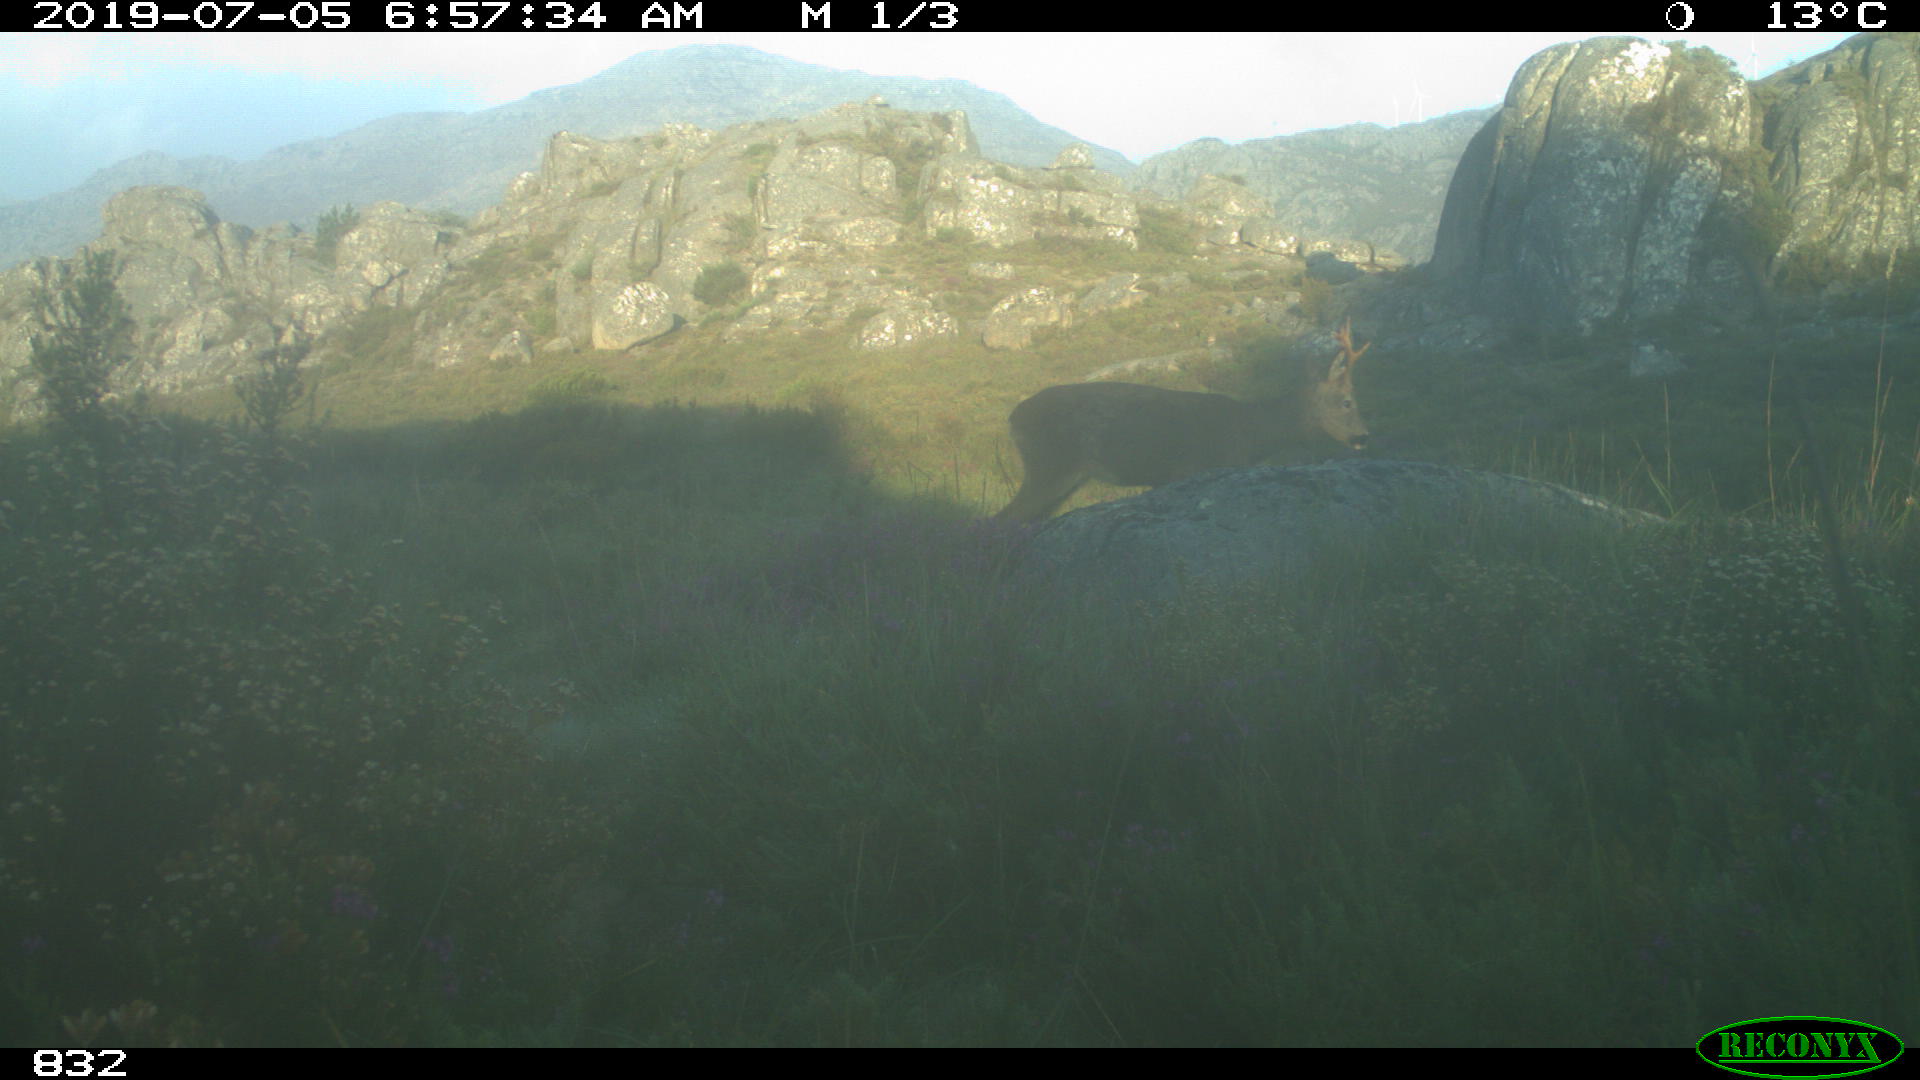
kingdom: Animalia
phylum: Chordata
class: Mammalia
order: Artiodactyla
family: Cervidae
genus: Capreolus
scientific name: Capreolus capreolus
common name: Western roe deer
